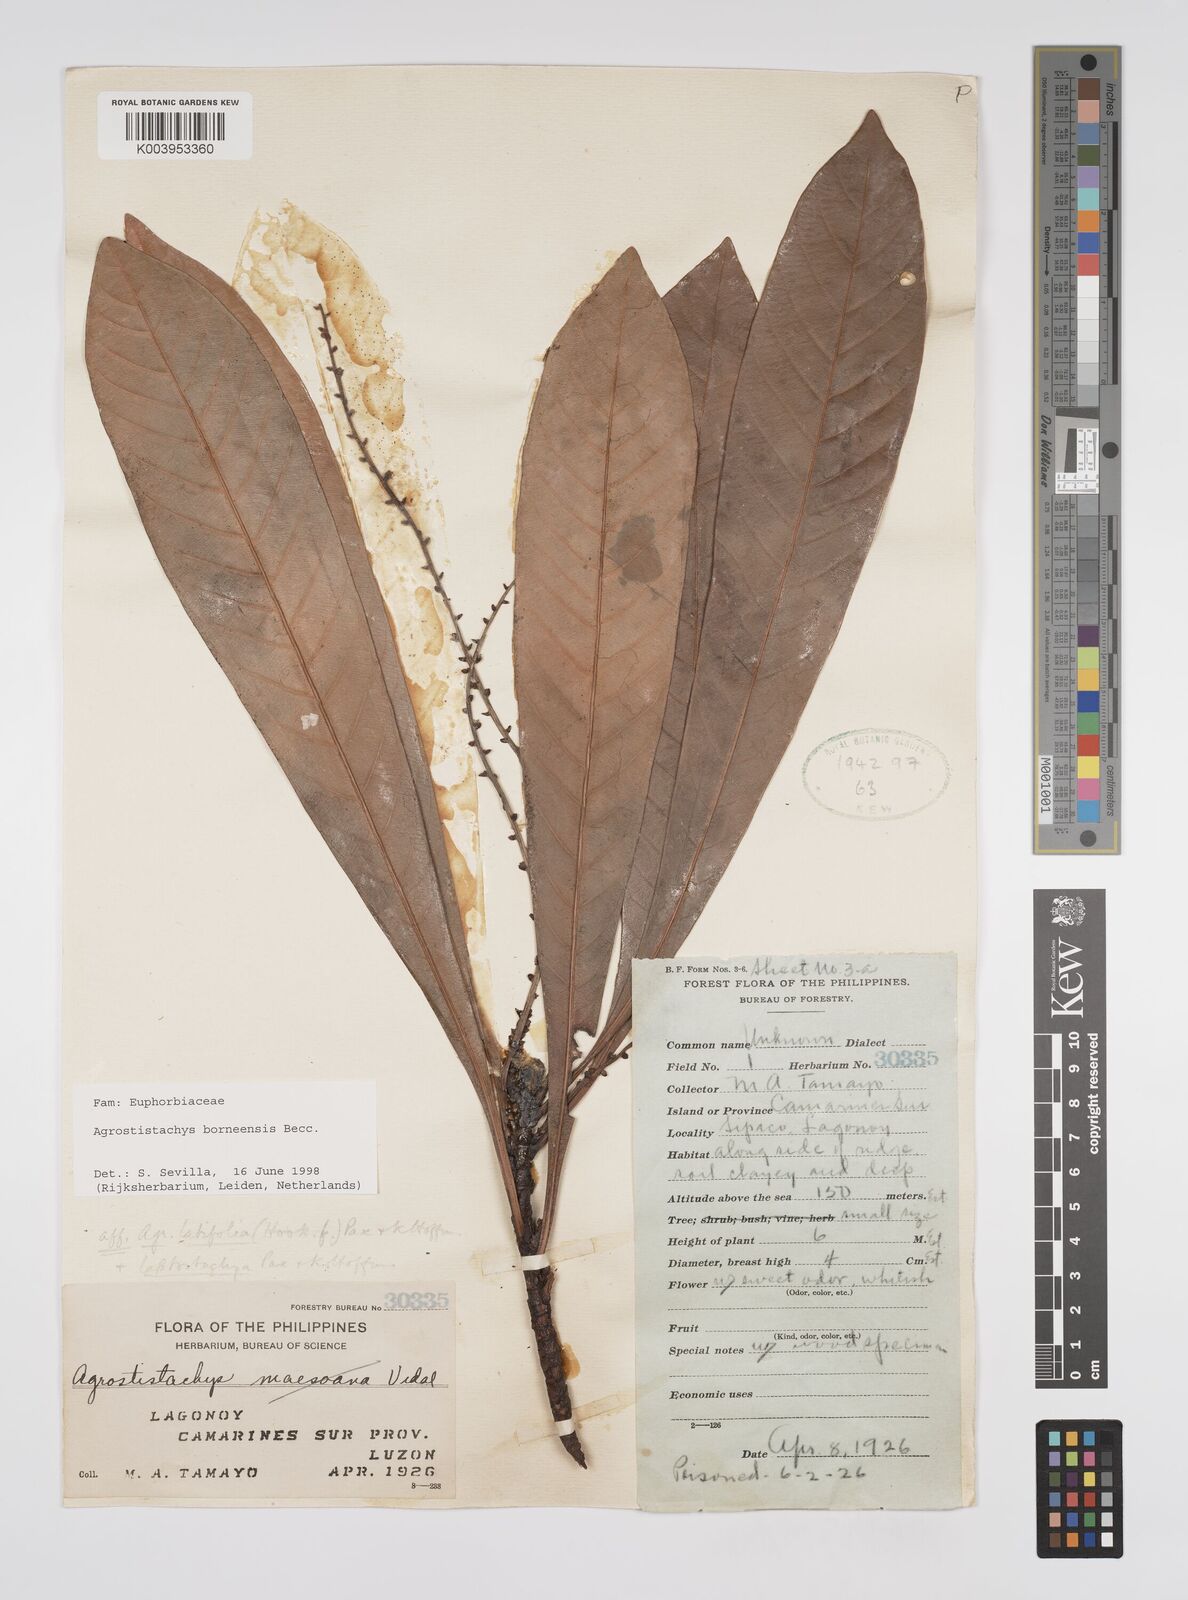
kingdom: Plantae
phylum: Tracheophyta
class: Magnoliopsida
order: Malpighiales
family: Euphorbiaceae
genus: Agrostistachys
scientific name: Agrostistachys borneensis
